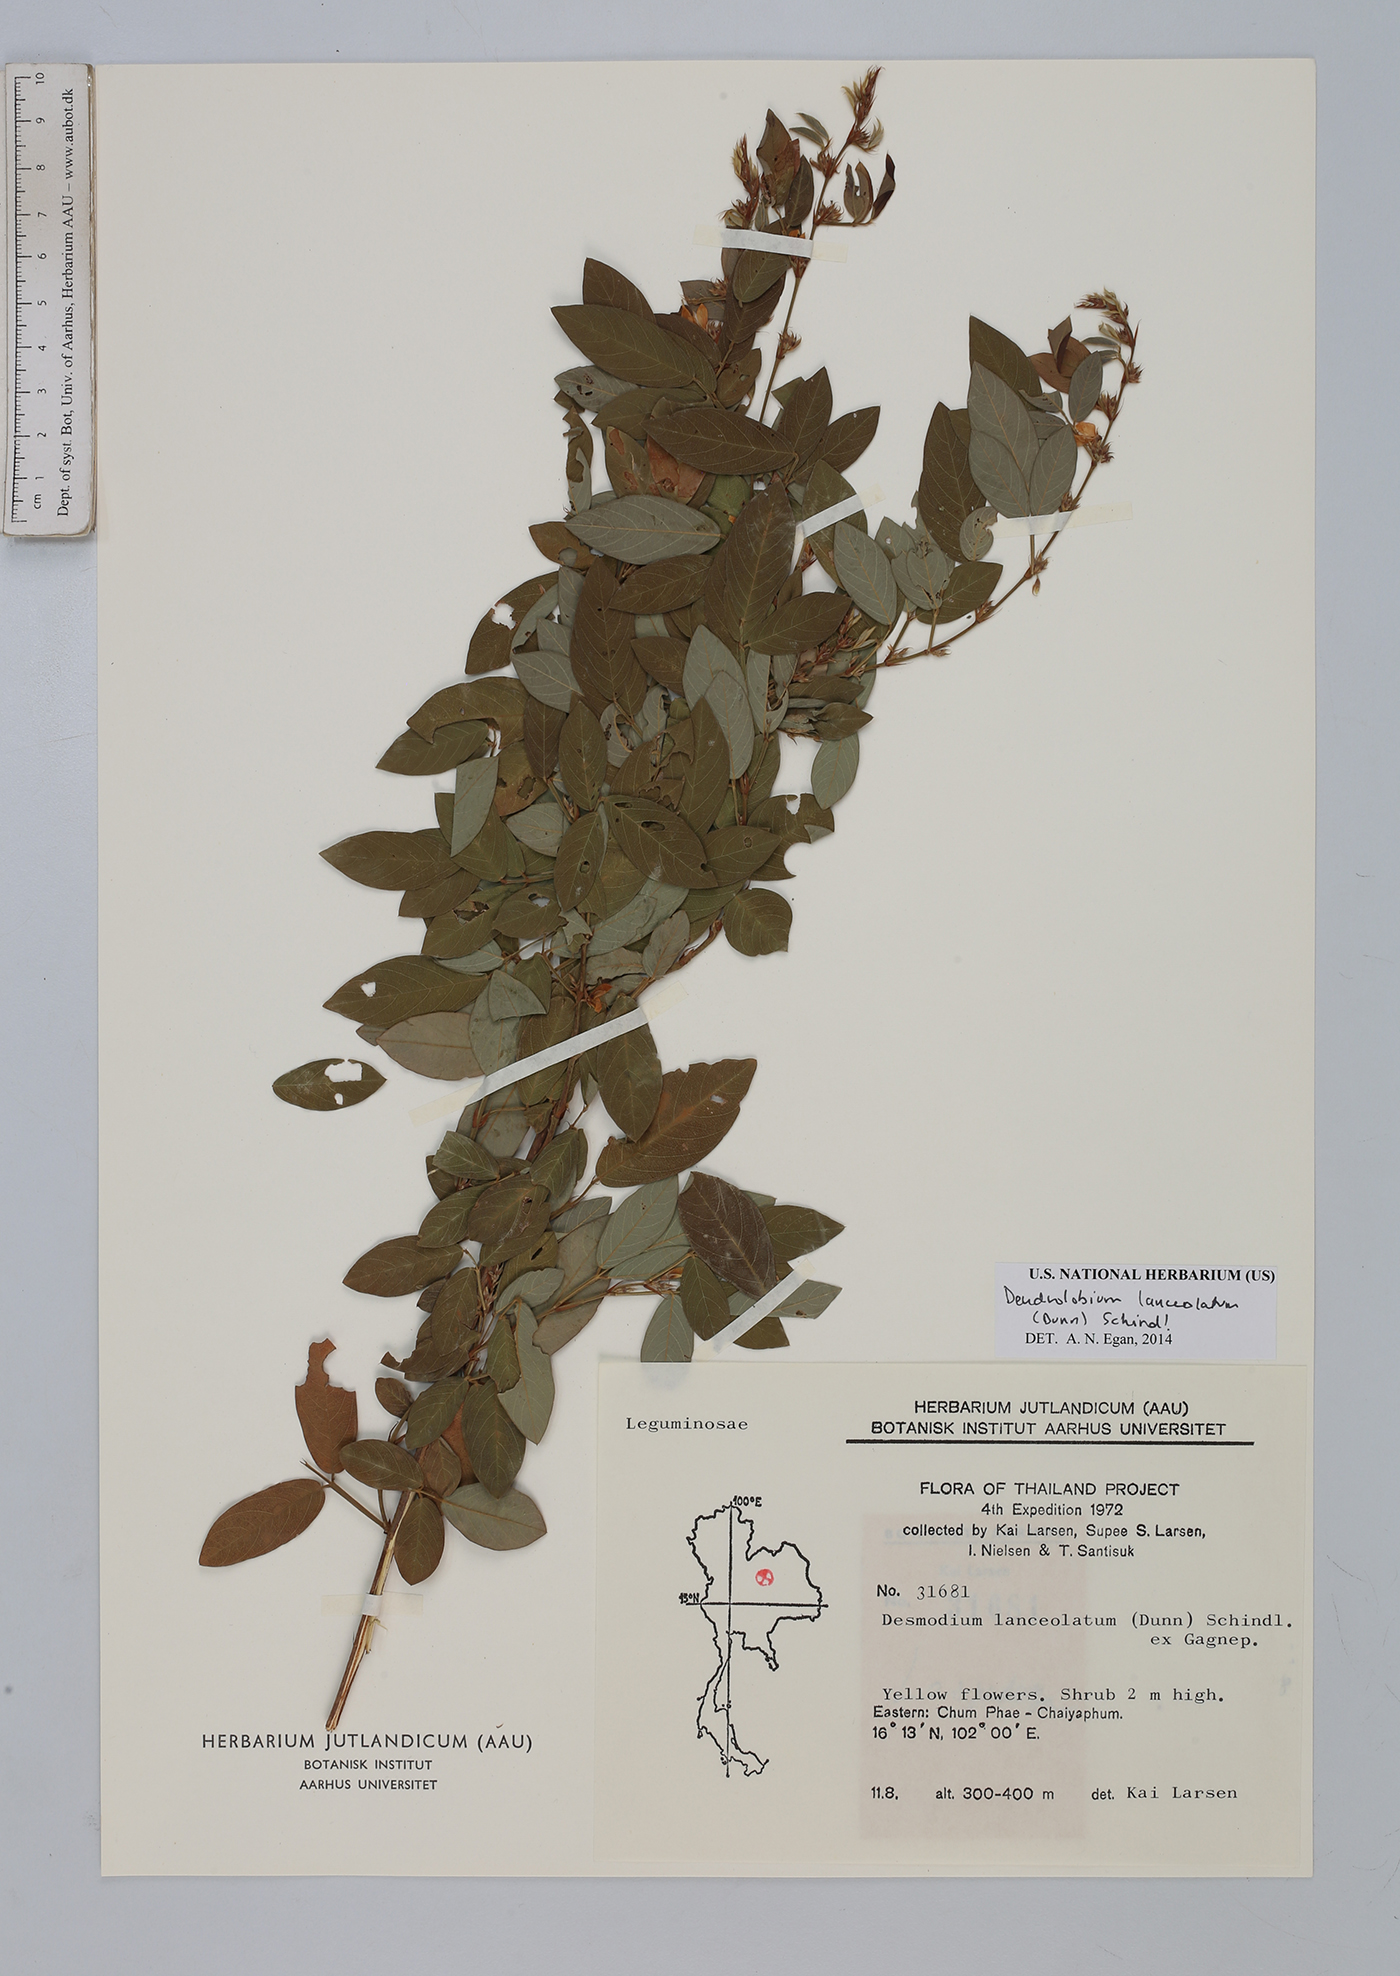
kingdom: Plantae
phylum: Tracheophyta
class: Magnoliopsida
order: Fabales
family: Fabaceae
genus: Dendrolobium
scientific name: Dendrolobium lanceolatum
